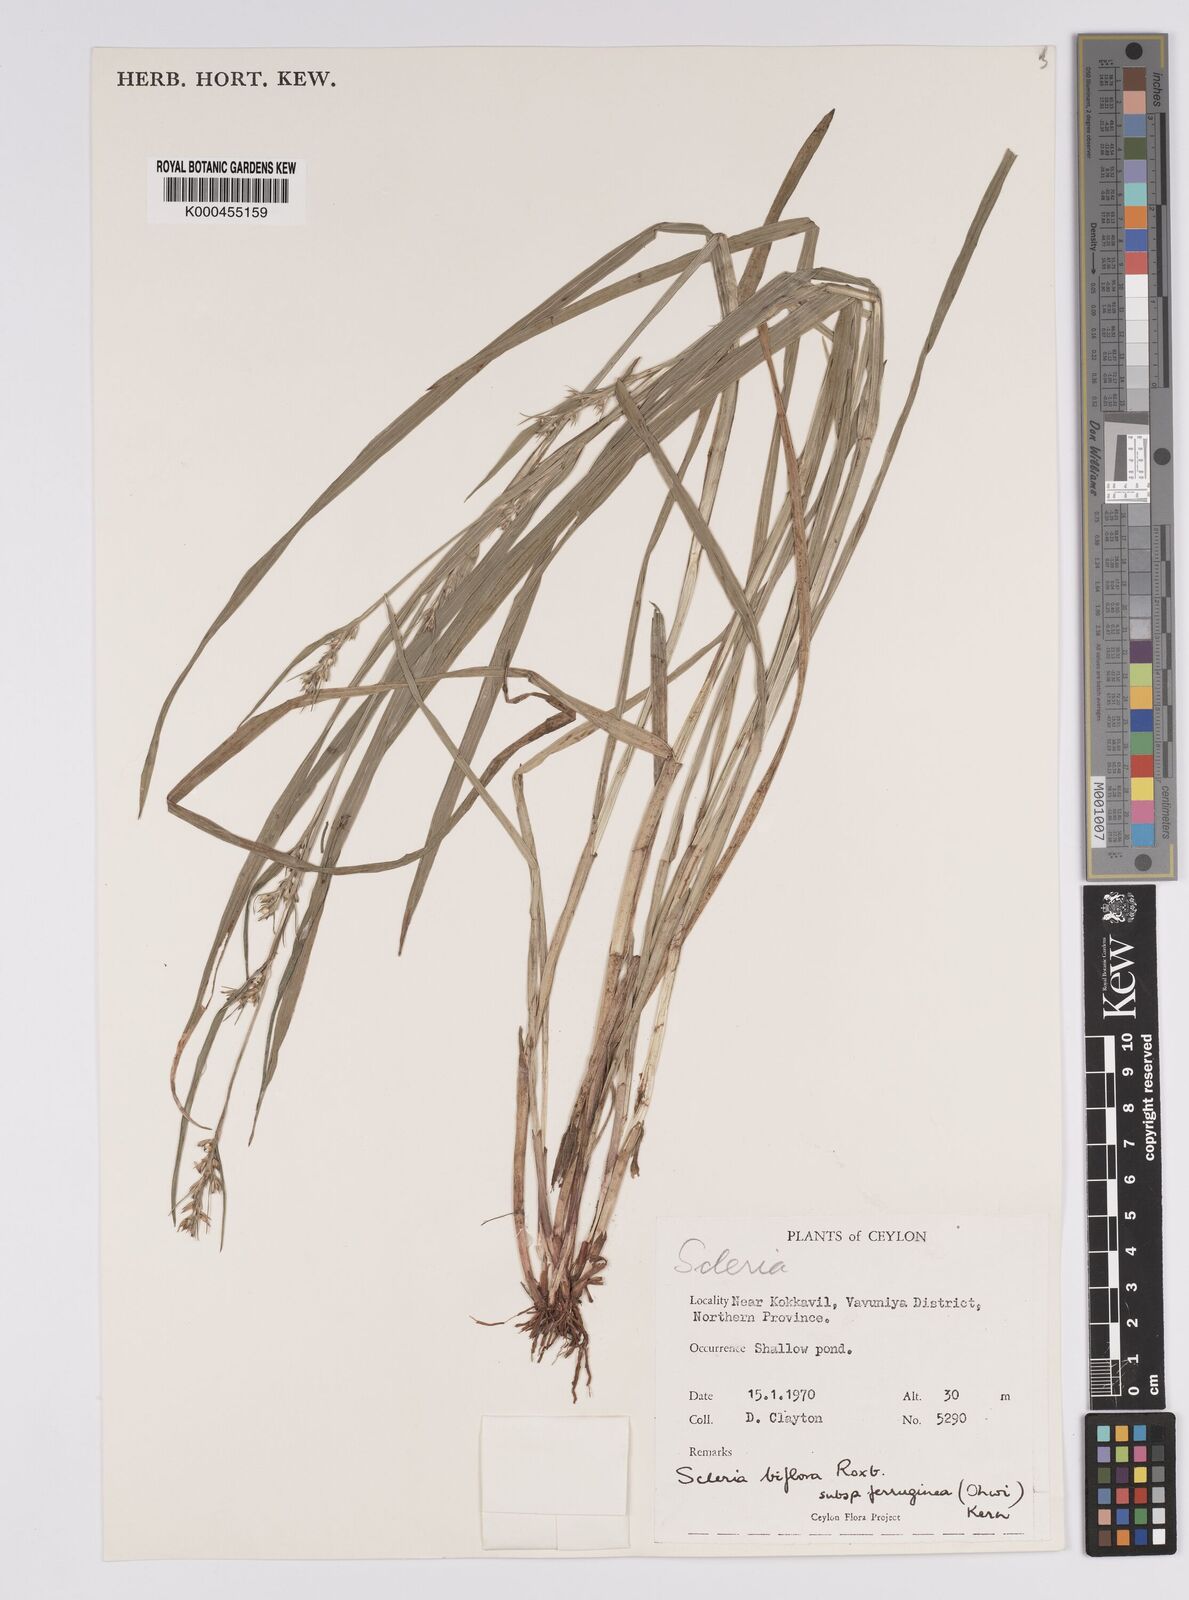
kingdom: Plantae
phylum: Tracheophyta
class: Liliopsida
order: Poales
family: Cyperaceae
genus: Scleria
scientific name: Scleria biflora
